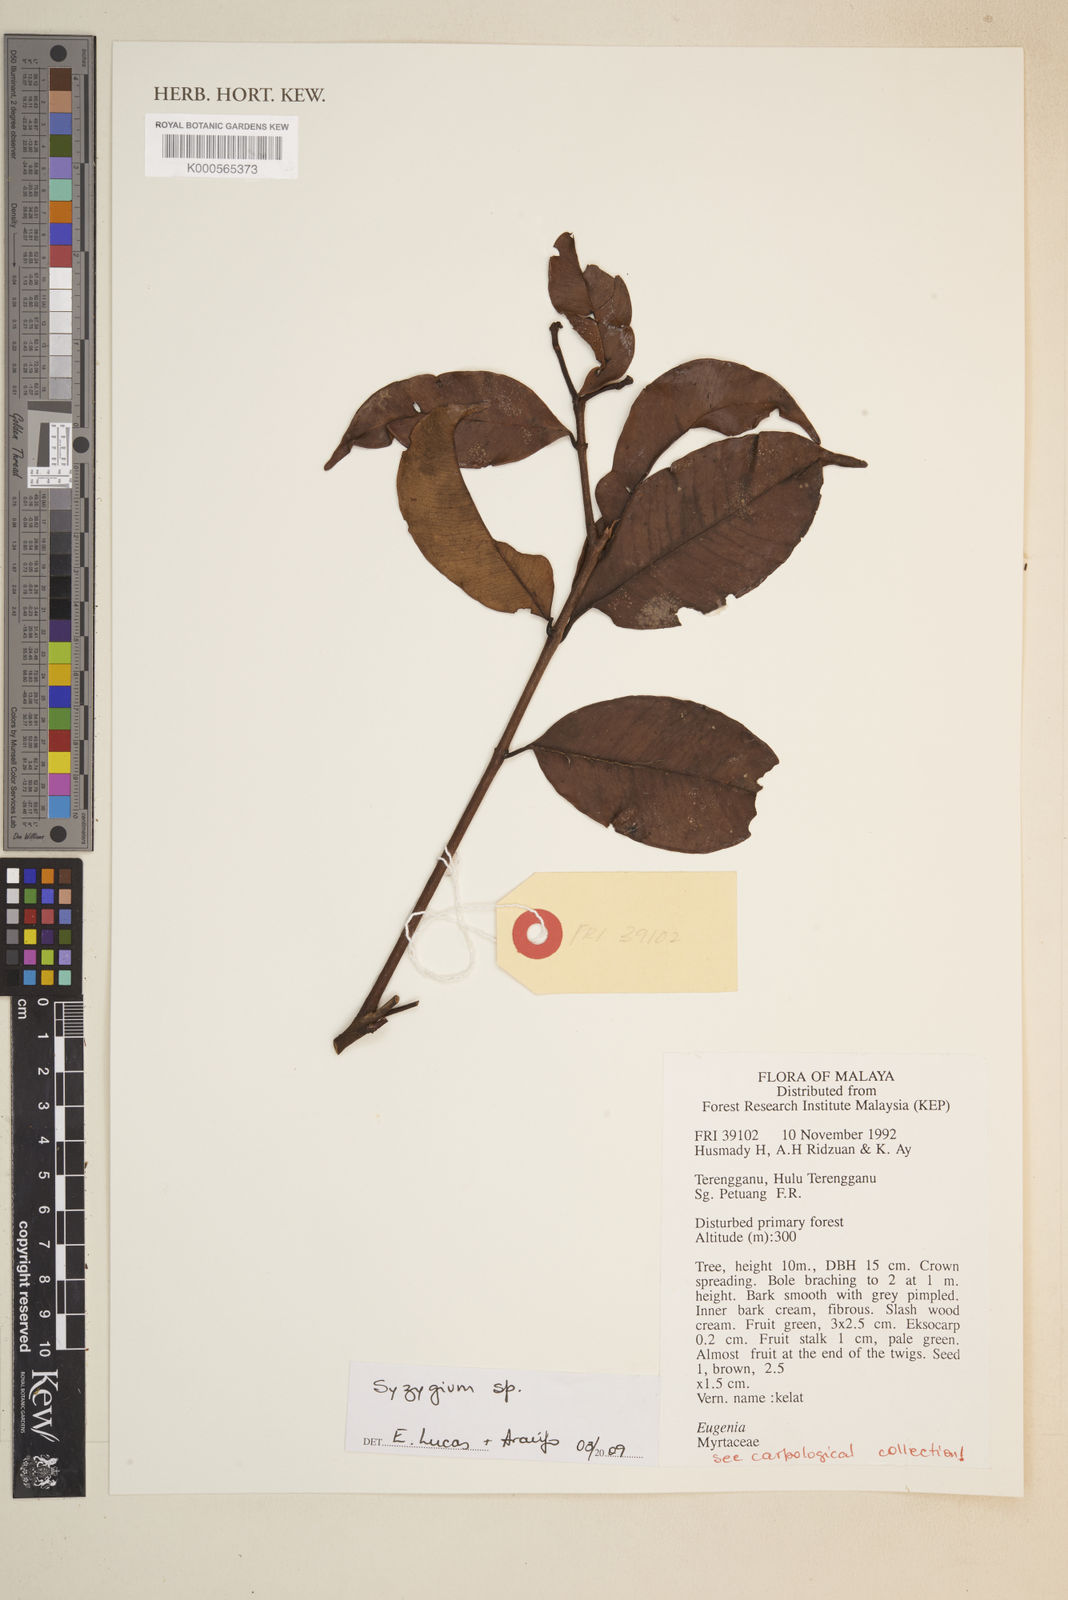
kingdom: Plantae
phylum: Tracheophyta
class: Magnoliopsida
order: Myrtales
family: Myrtaceae
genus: Syzygium
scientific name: Syzygium
